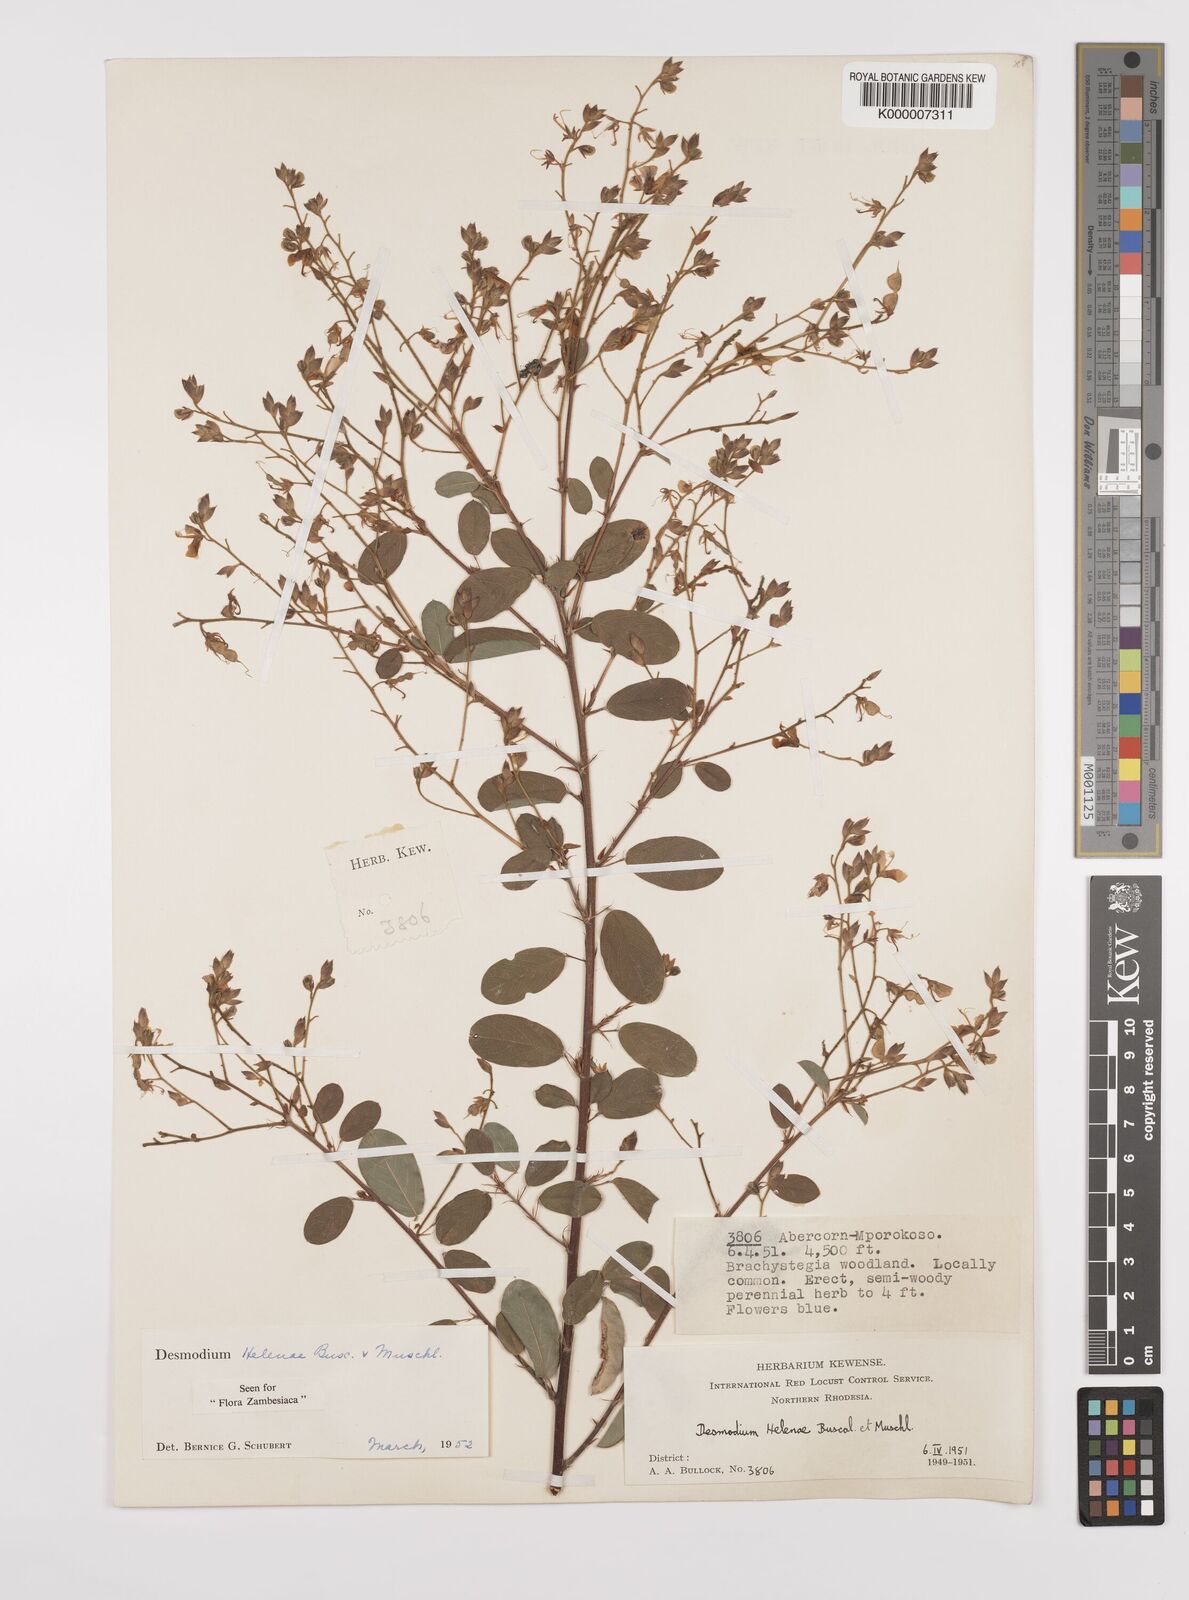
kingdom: Plantae
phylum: Tracheophyta
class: Magnoliopsida
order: Fabales
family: Fabaceae
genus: Grona
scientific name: Grona helenae
